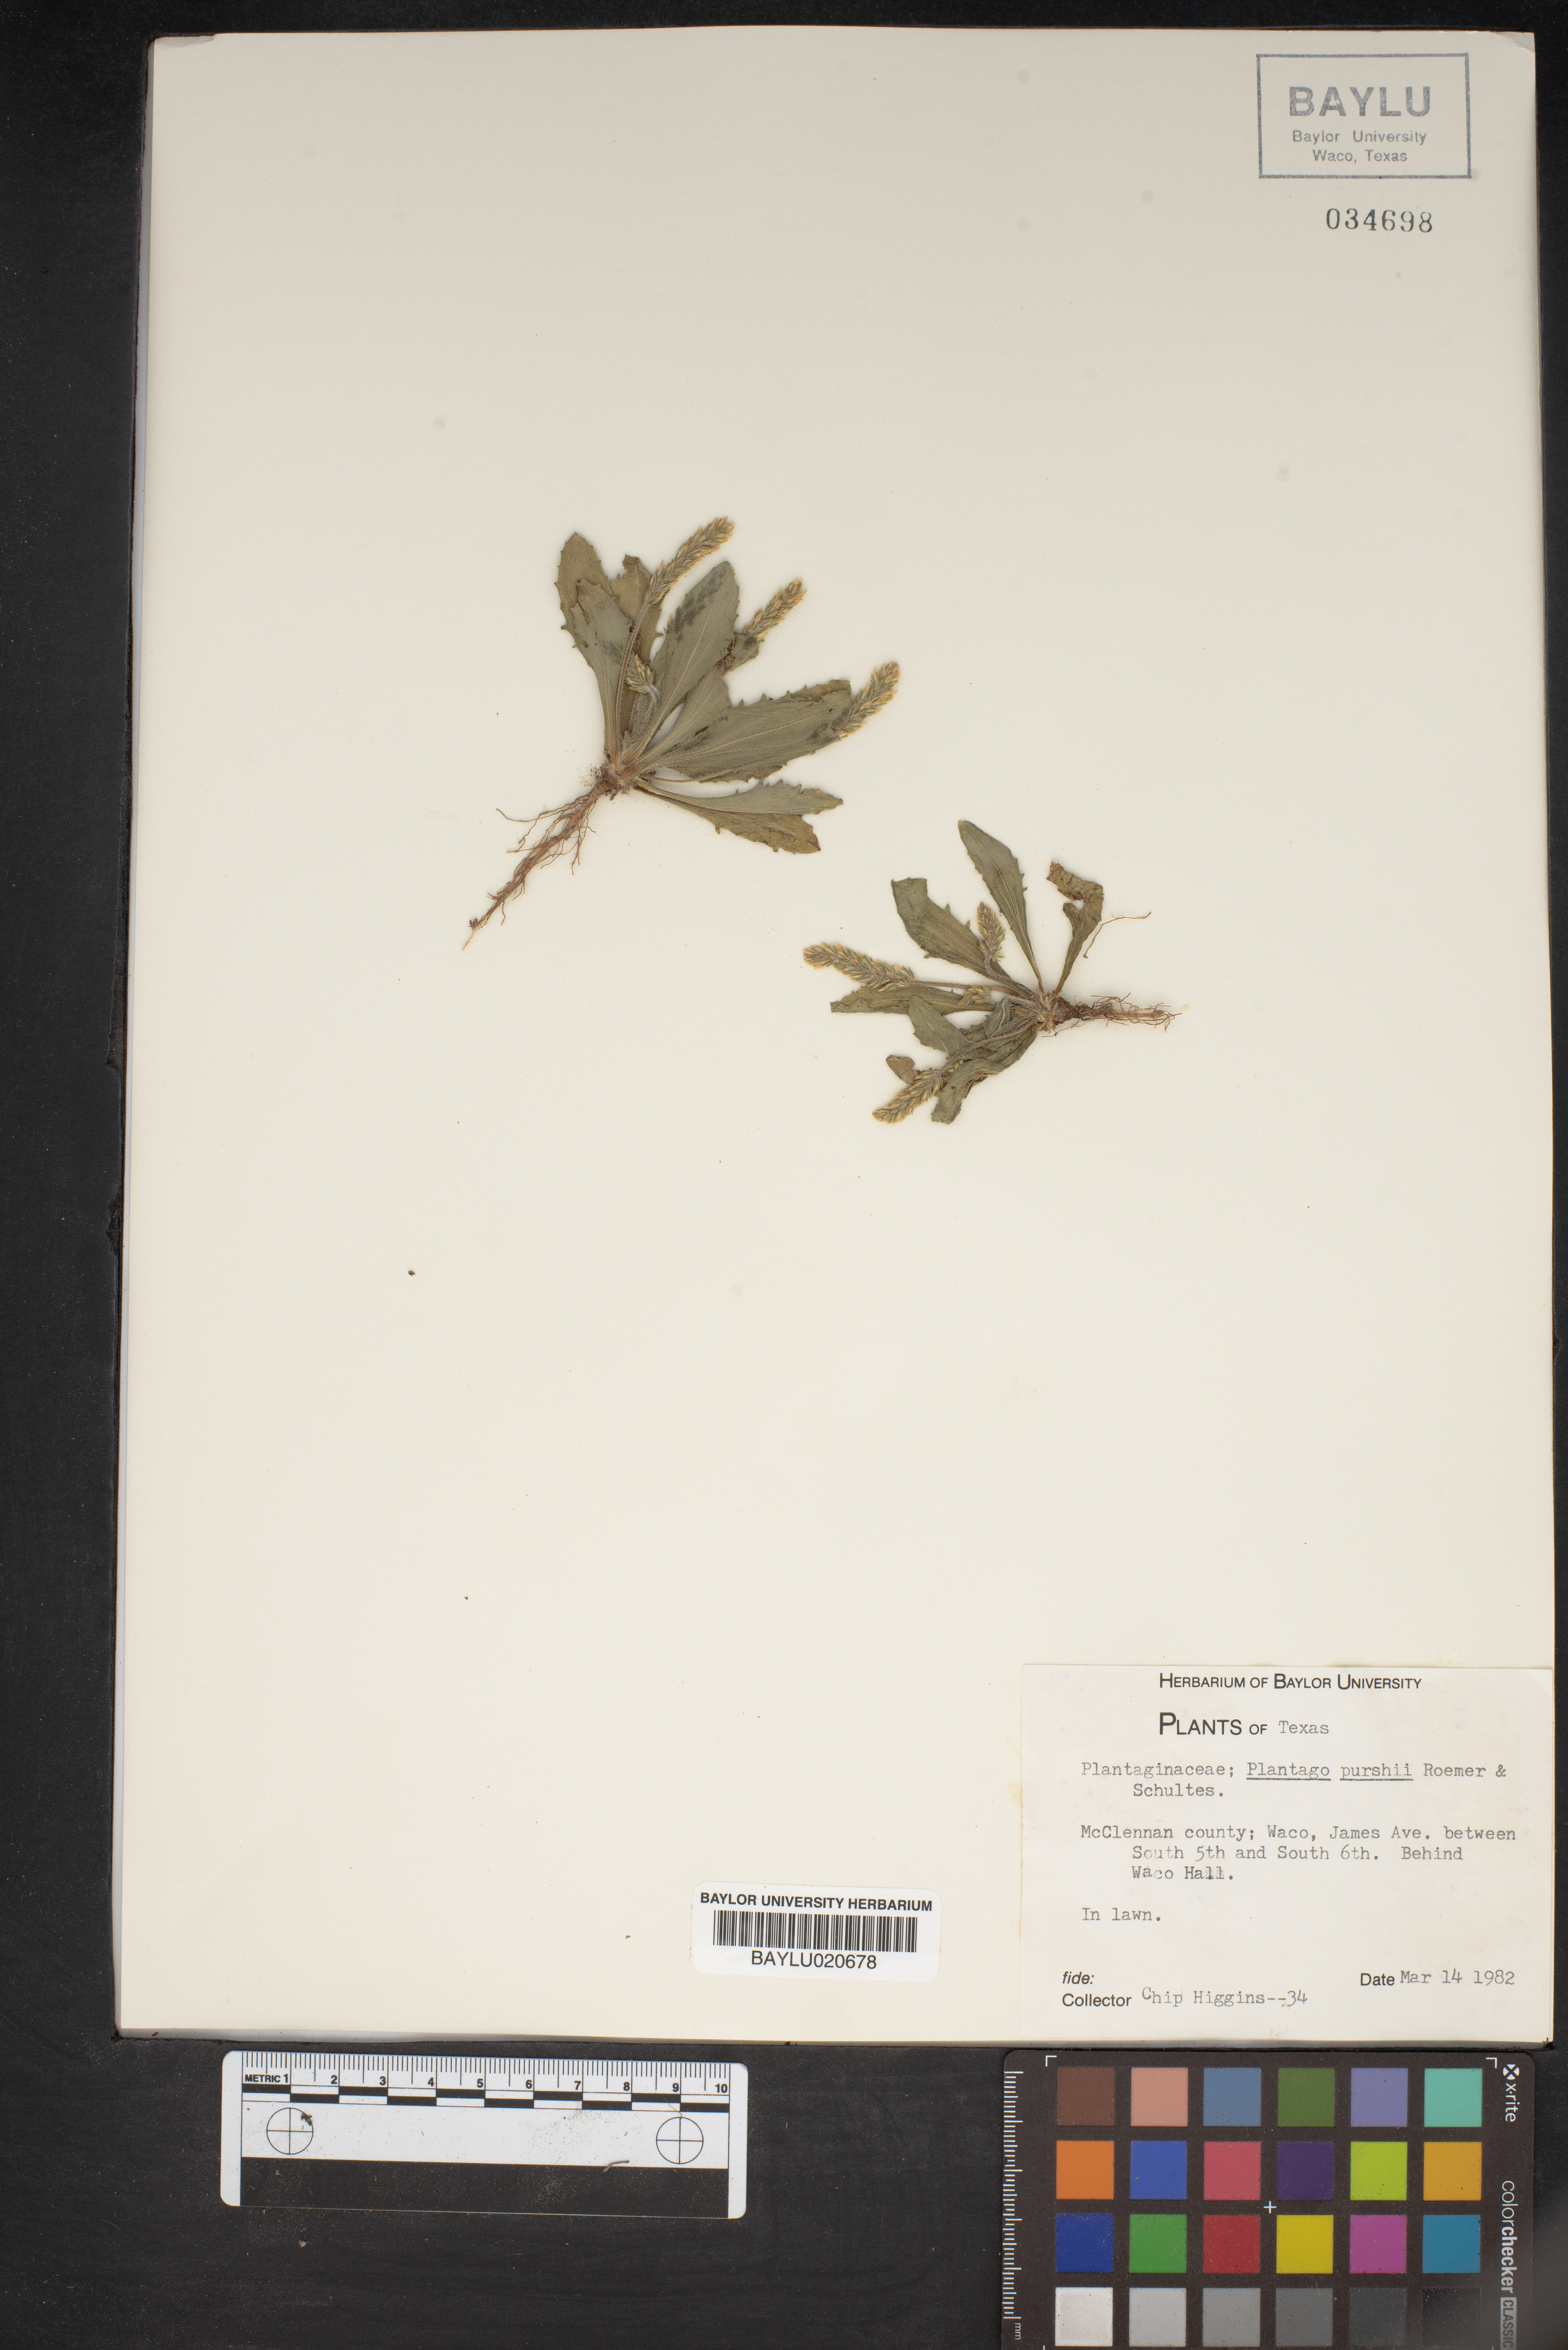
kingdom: Plantae
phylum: Tracheophyta
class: Magnoliopsida
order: Lamiales
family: Plantaginaceae
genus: Plantago
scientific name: Plantago patagonica
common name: Patagonia indian-wheat
